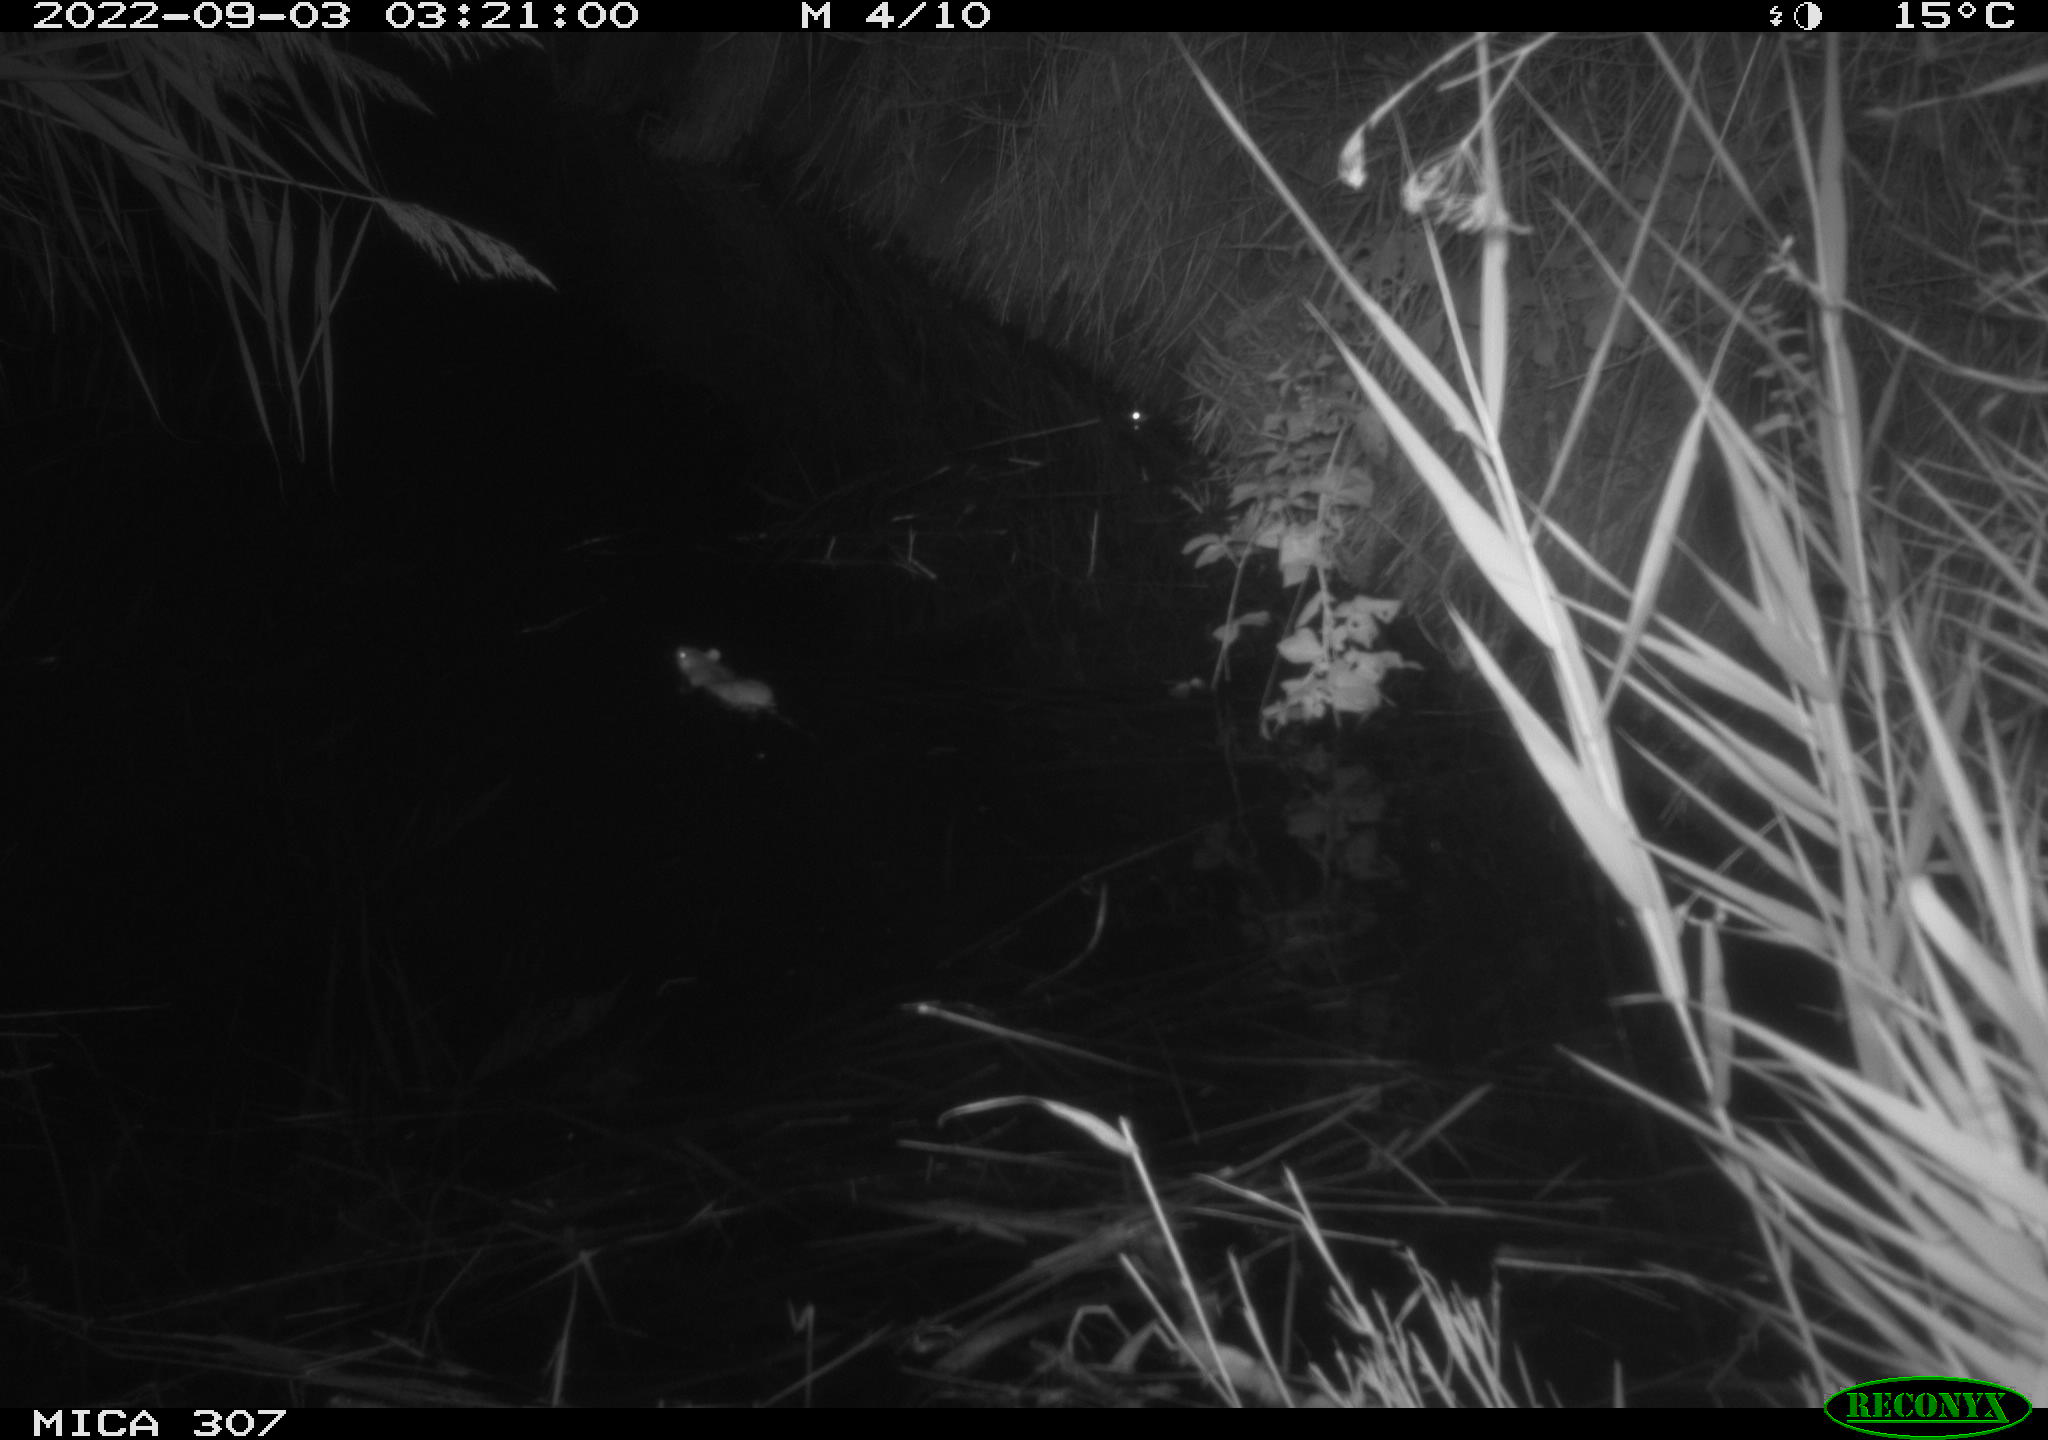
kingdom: Animalia
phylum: Chordata
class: Mammalia
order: Rodentia
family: Muridae
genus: Rattus
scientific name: Rattus norvegicus
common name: Brown rat
